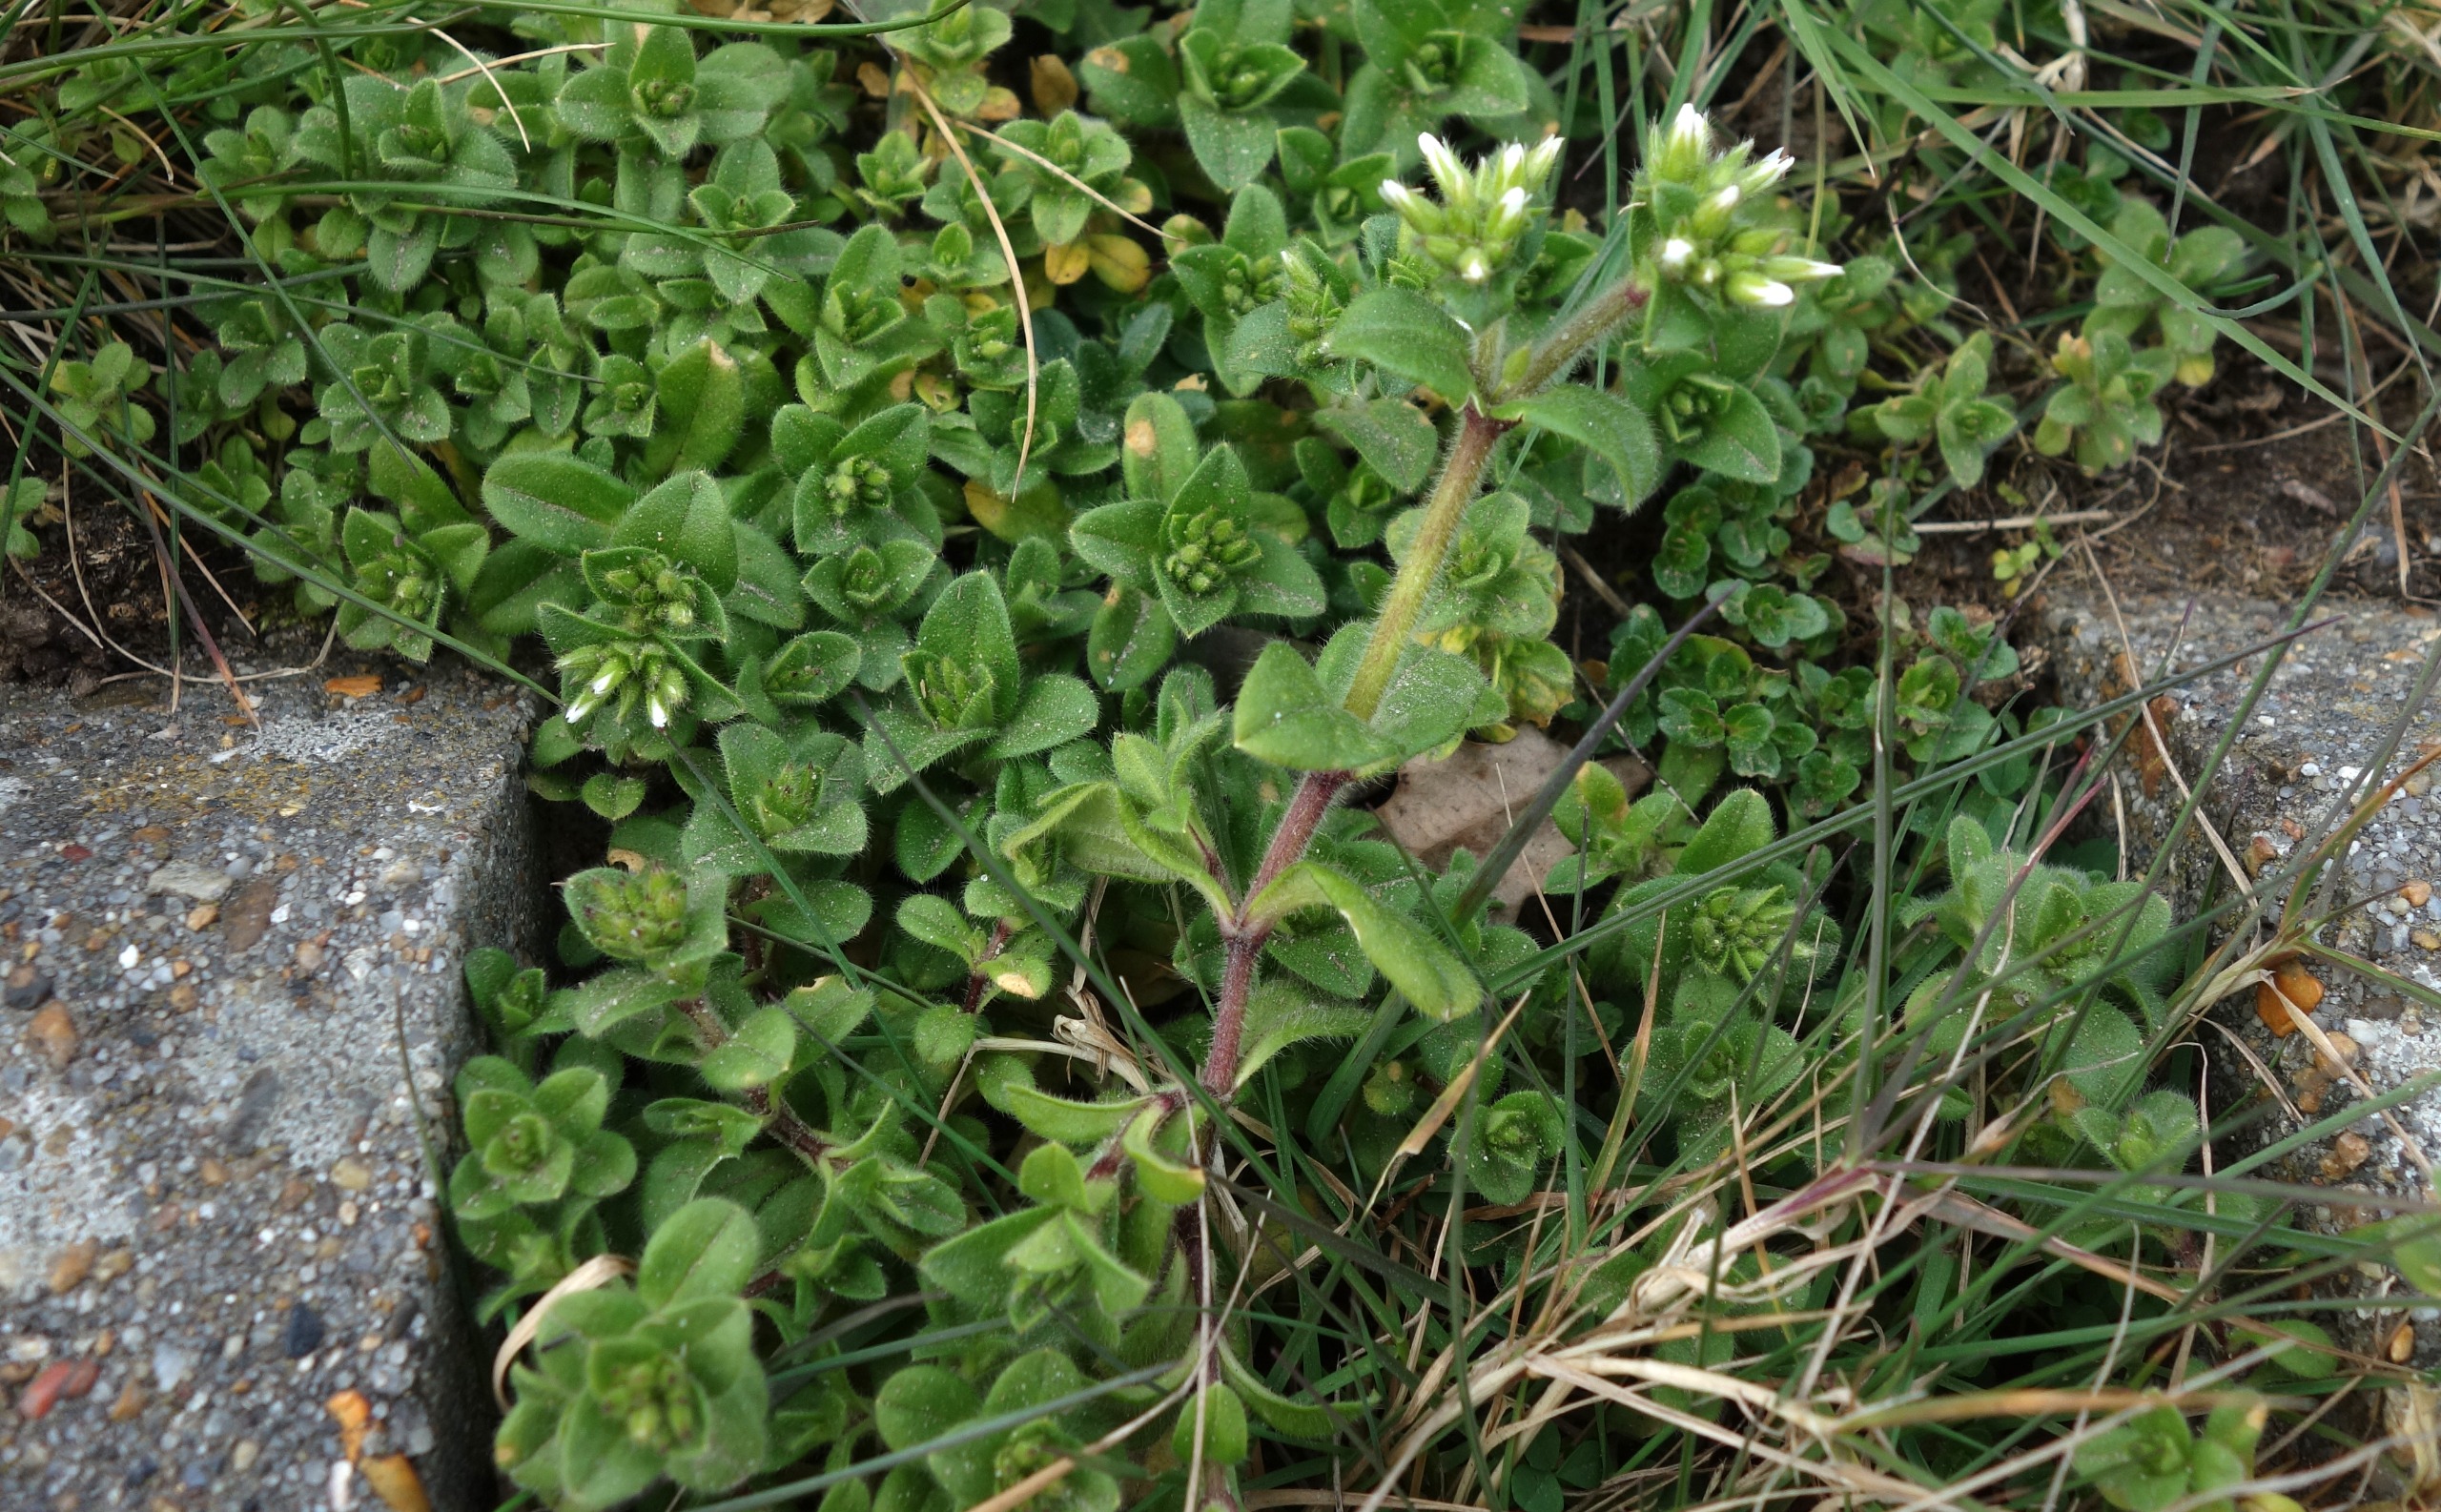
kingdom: Plantae
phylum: Tracheophyta
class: Magnoliopsida
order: Caryophyllales
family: Caryophyllaceae
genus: Cerastium
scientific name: Cerastium glomeratum
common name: Opret hønsetarm
